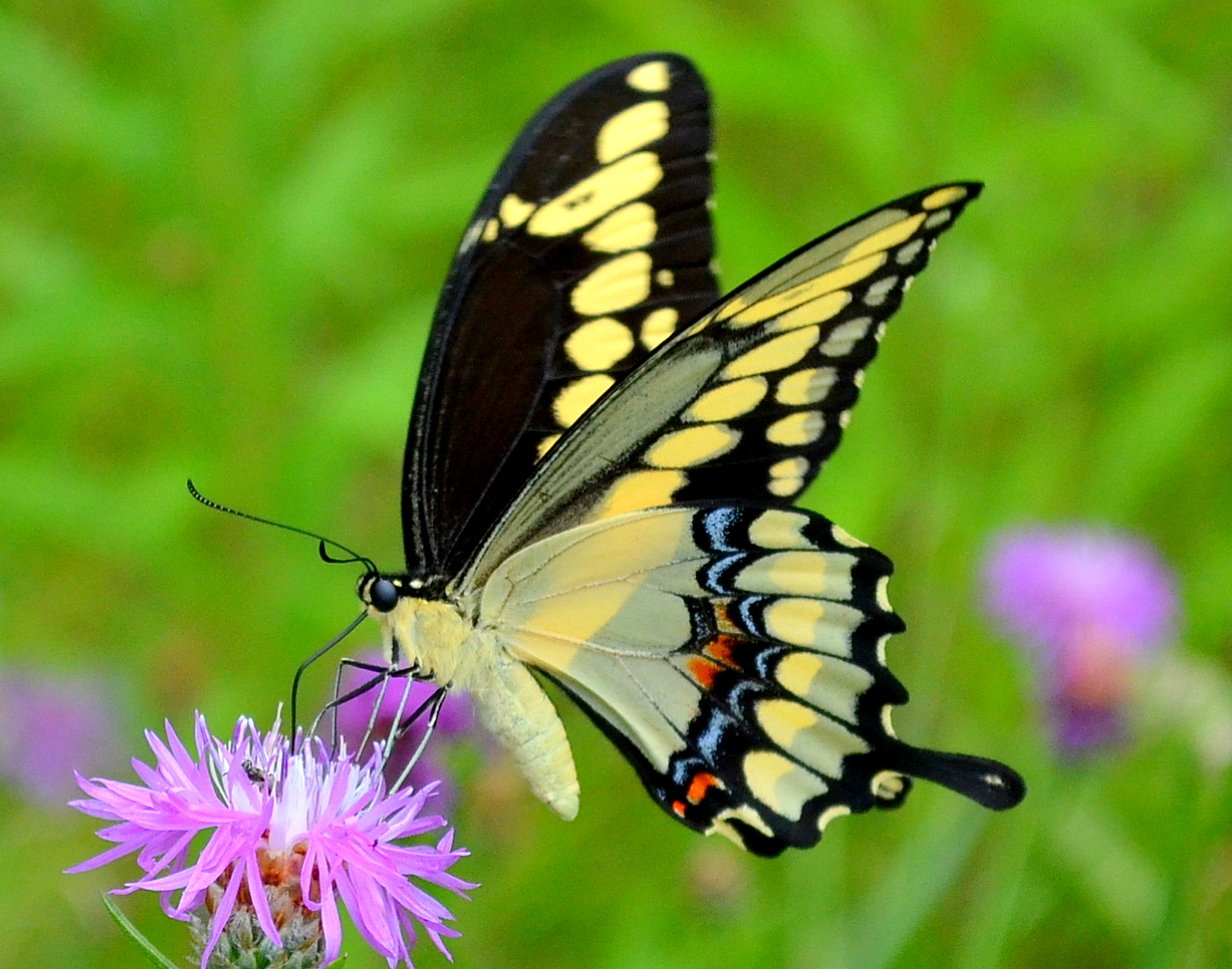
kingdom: Animalia
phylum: Arthropoda
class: Insecta
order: Lepidoptera
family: Papilionidae
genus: Papilio
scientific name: Papilio cresphontes
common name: Eastern Giant Swallowtail
